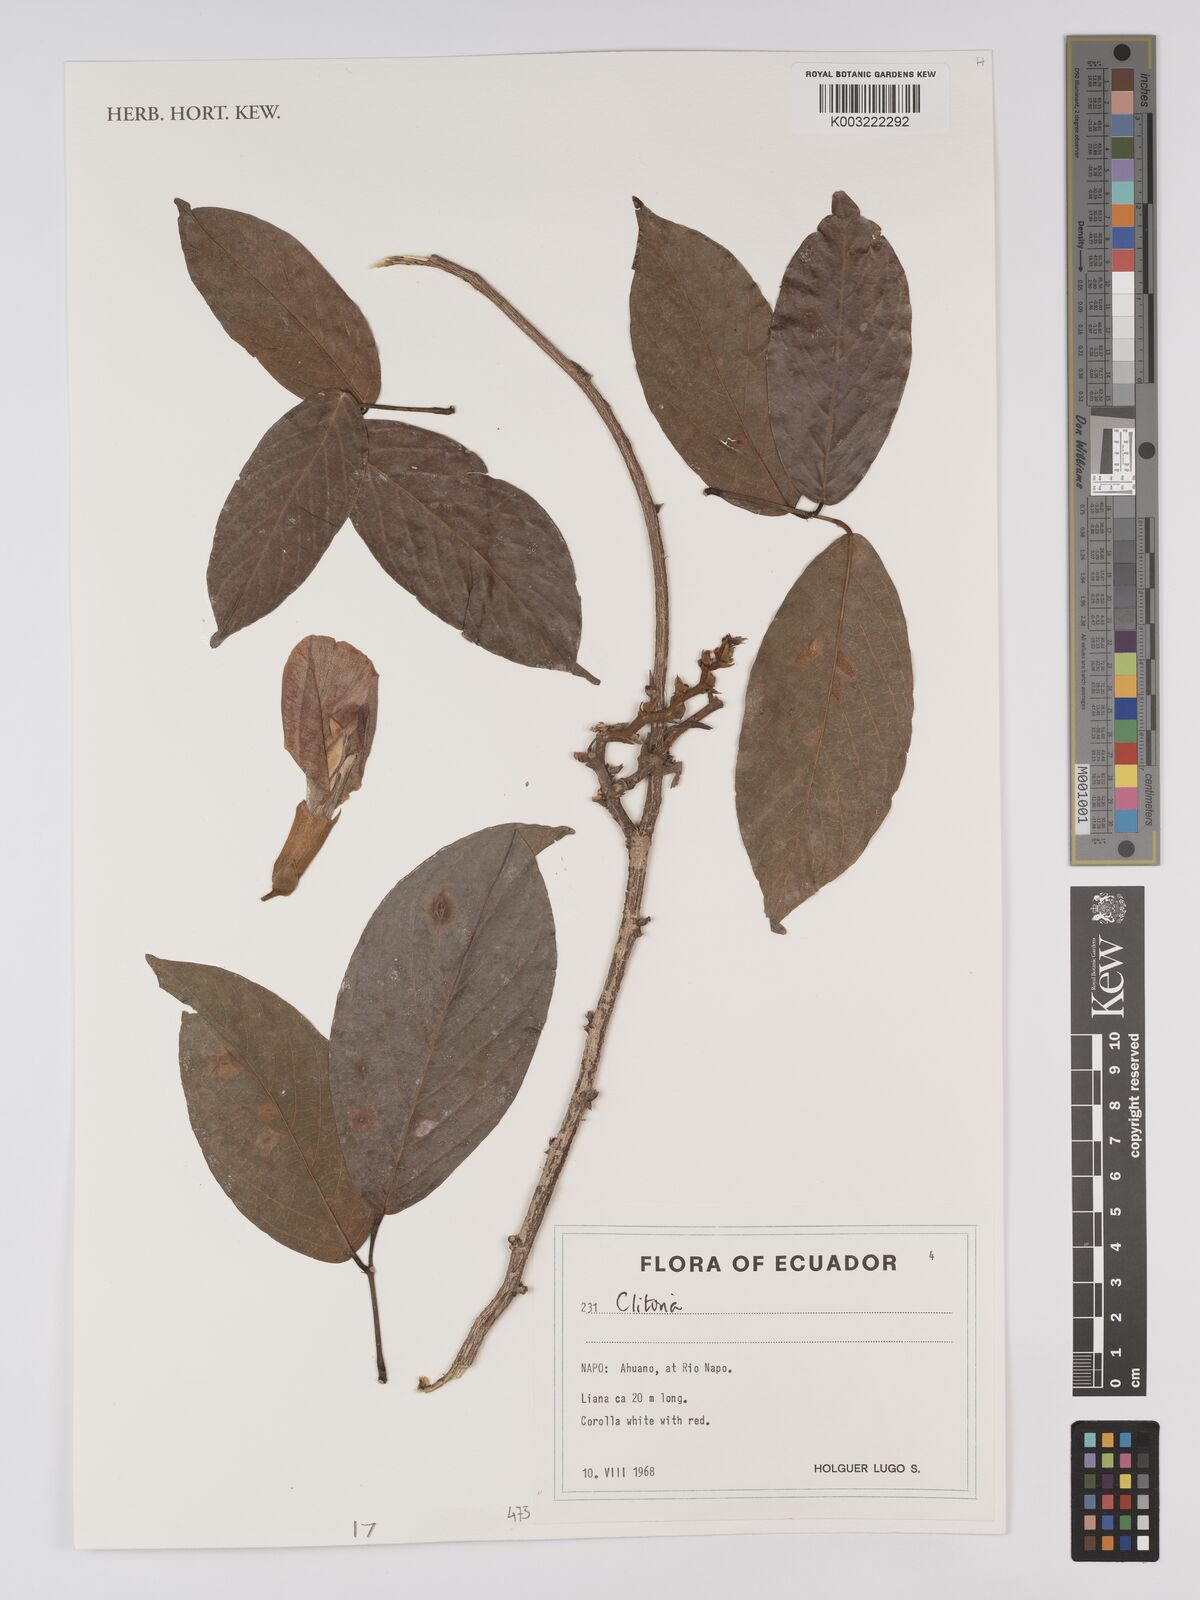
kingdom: Plantae
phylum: Tracheophyta
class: Magnoliopsida
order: Fabales
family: Fabaceae
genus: Clitoria
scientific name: Clitoria
